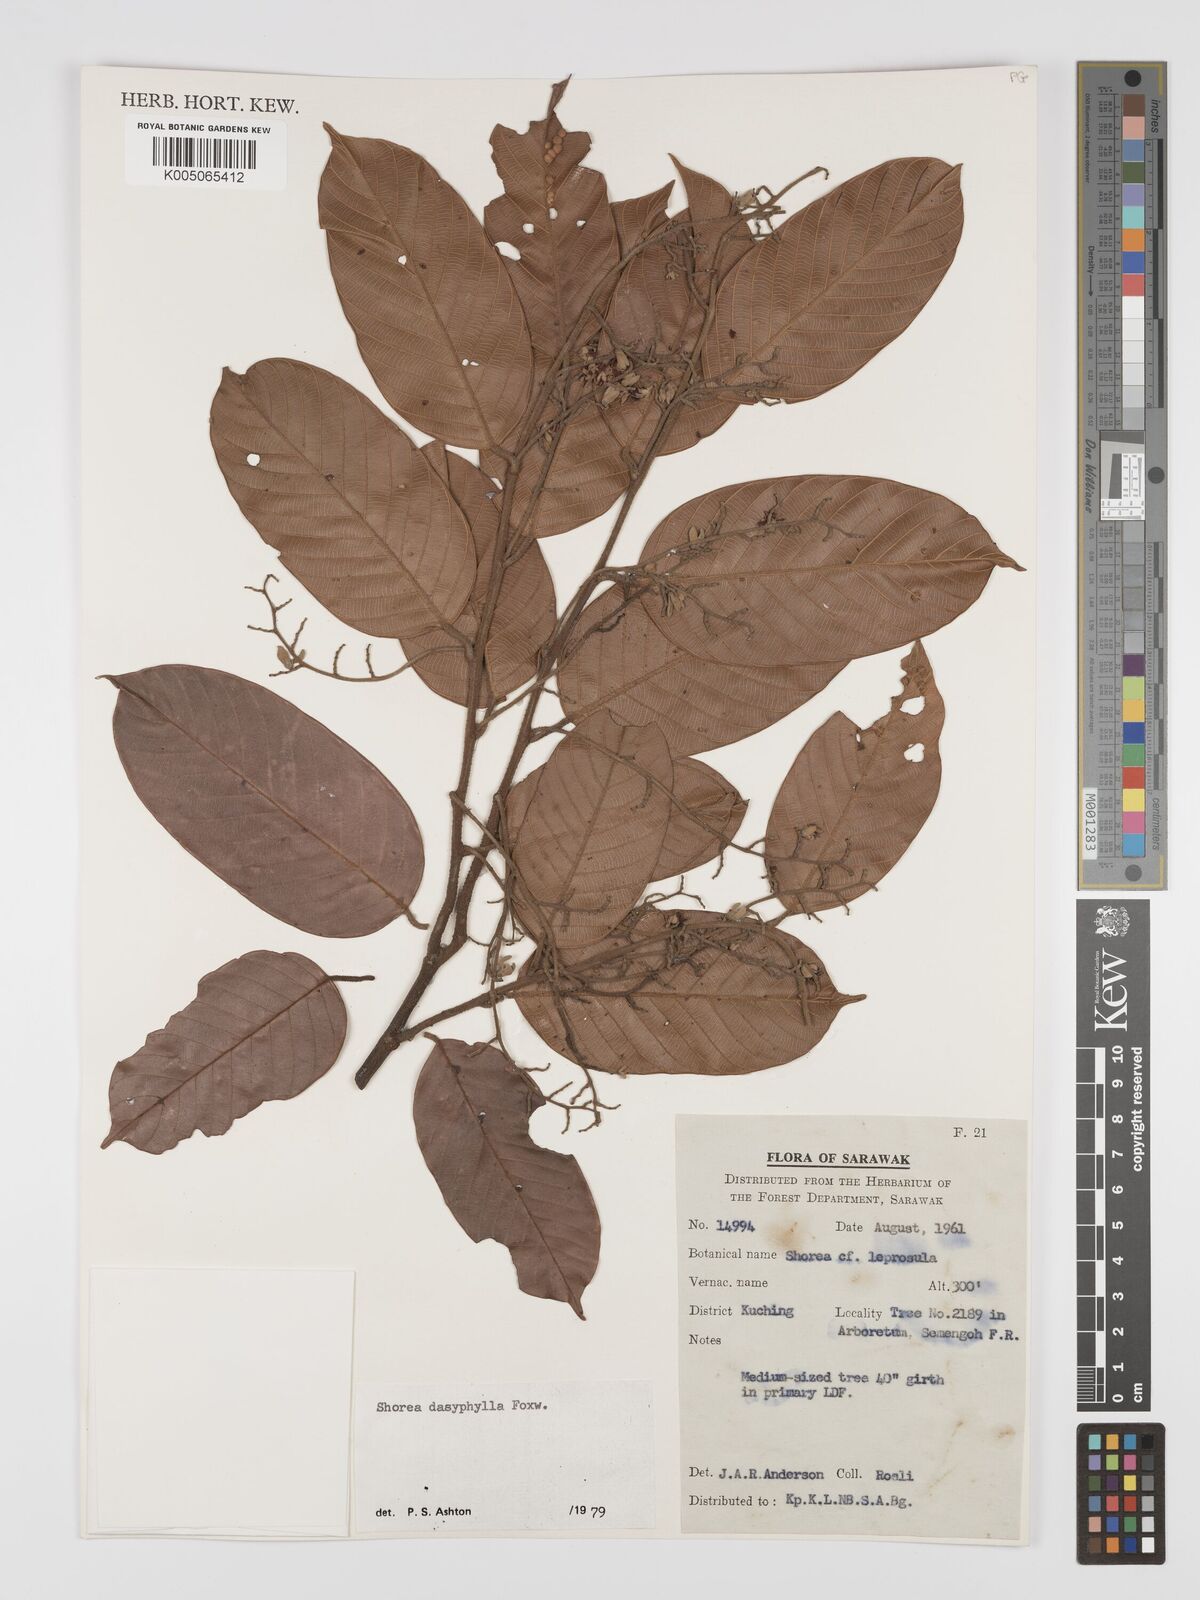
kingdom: Plantae
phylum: Tracheophyta
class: Magnoliopsida
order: Malvales
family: Dipterocarpaceae
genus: Shorea
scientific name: Shorea dasyphylla
